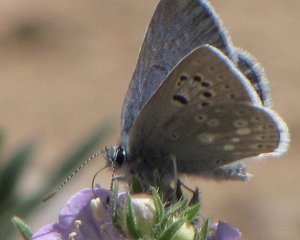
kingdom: Animalia
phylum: Arthropoda
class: Insecta
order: Lepidoptera
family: Lycaenidae
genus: Icaricia
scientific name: Icaricia icarioides
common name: Boisduval's Blue
